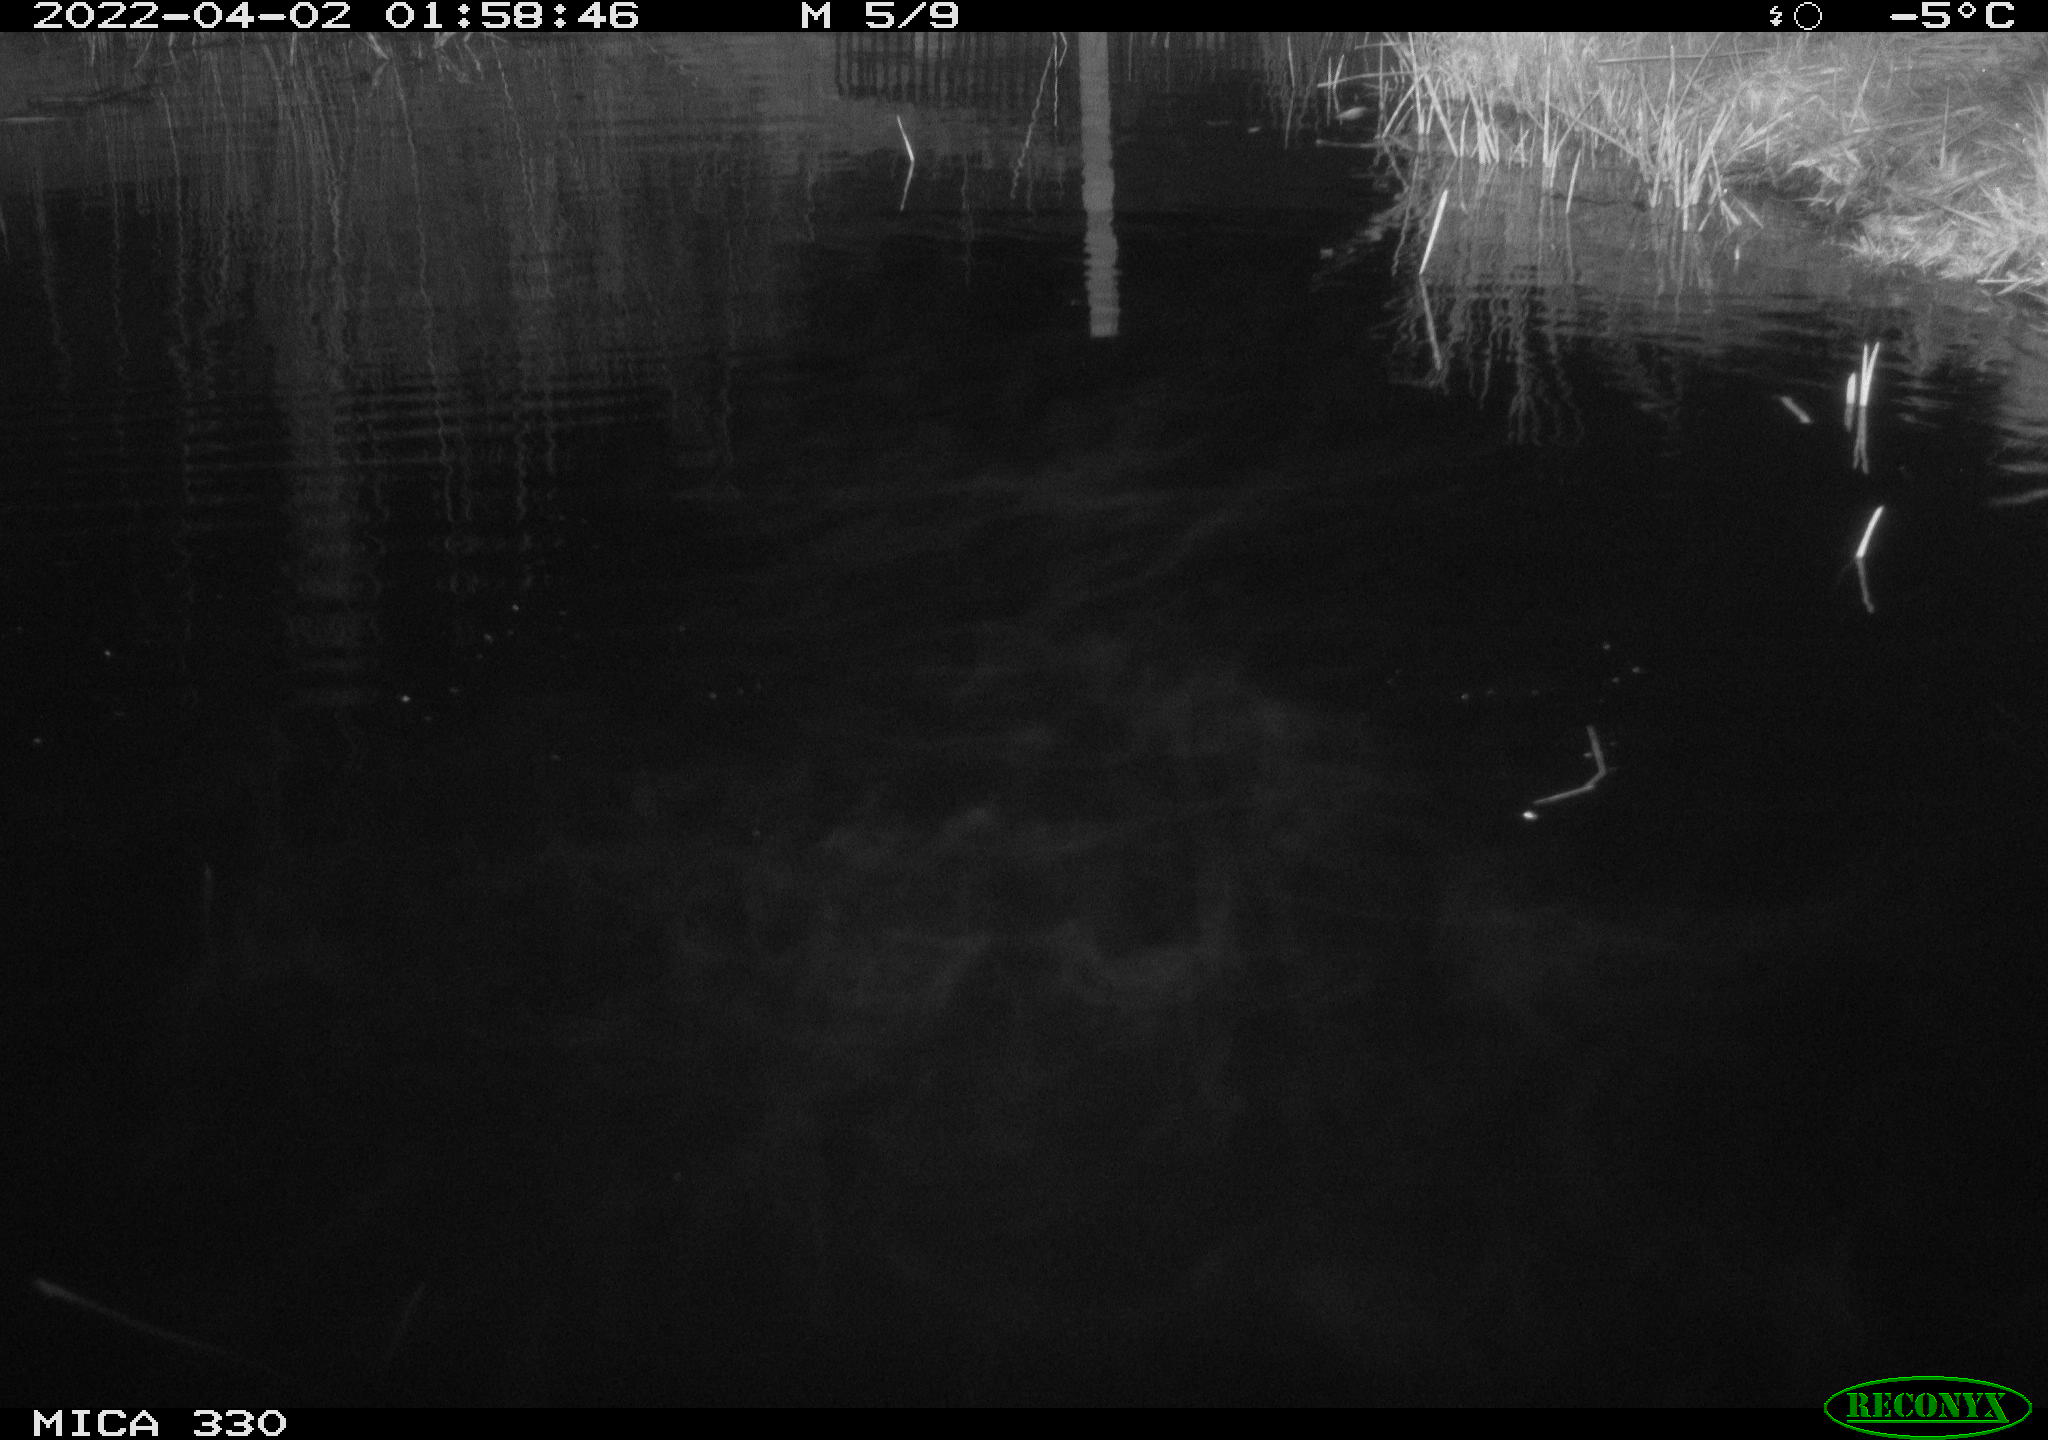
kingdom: Animalia
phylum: Chordata
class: Aves
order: Anseriformes
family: Anatidae
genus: Anas
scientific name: Anas platyrhynchos
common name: Mallard
